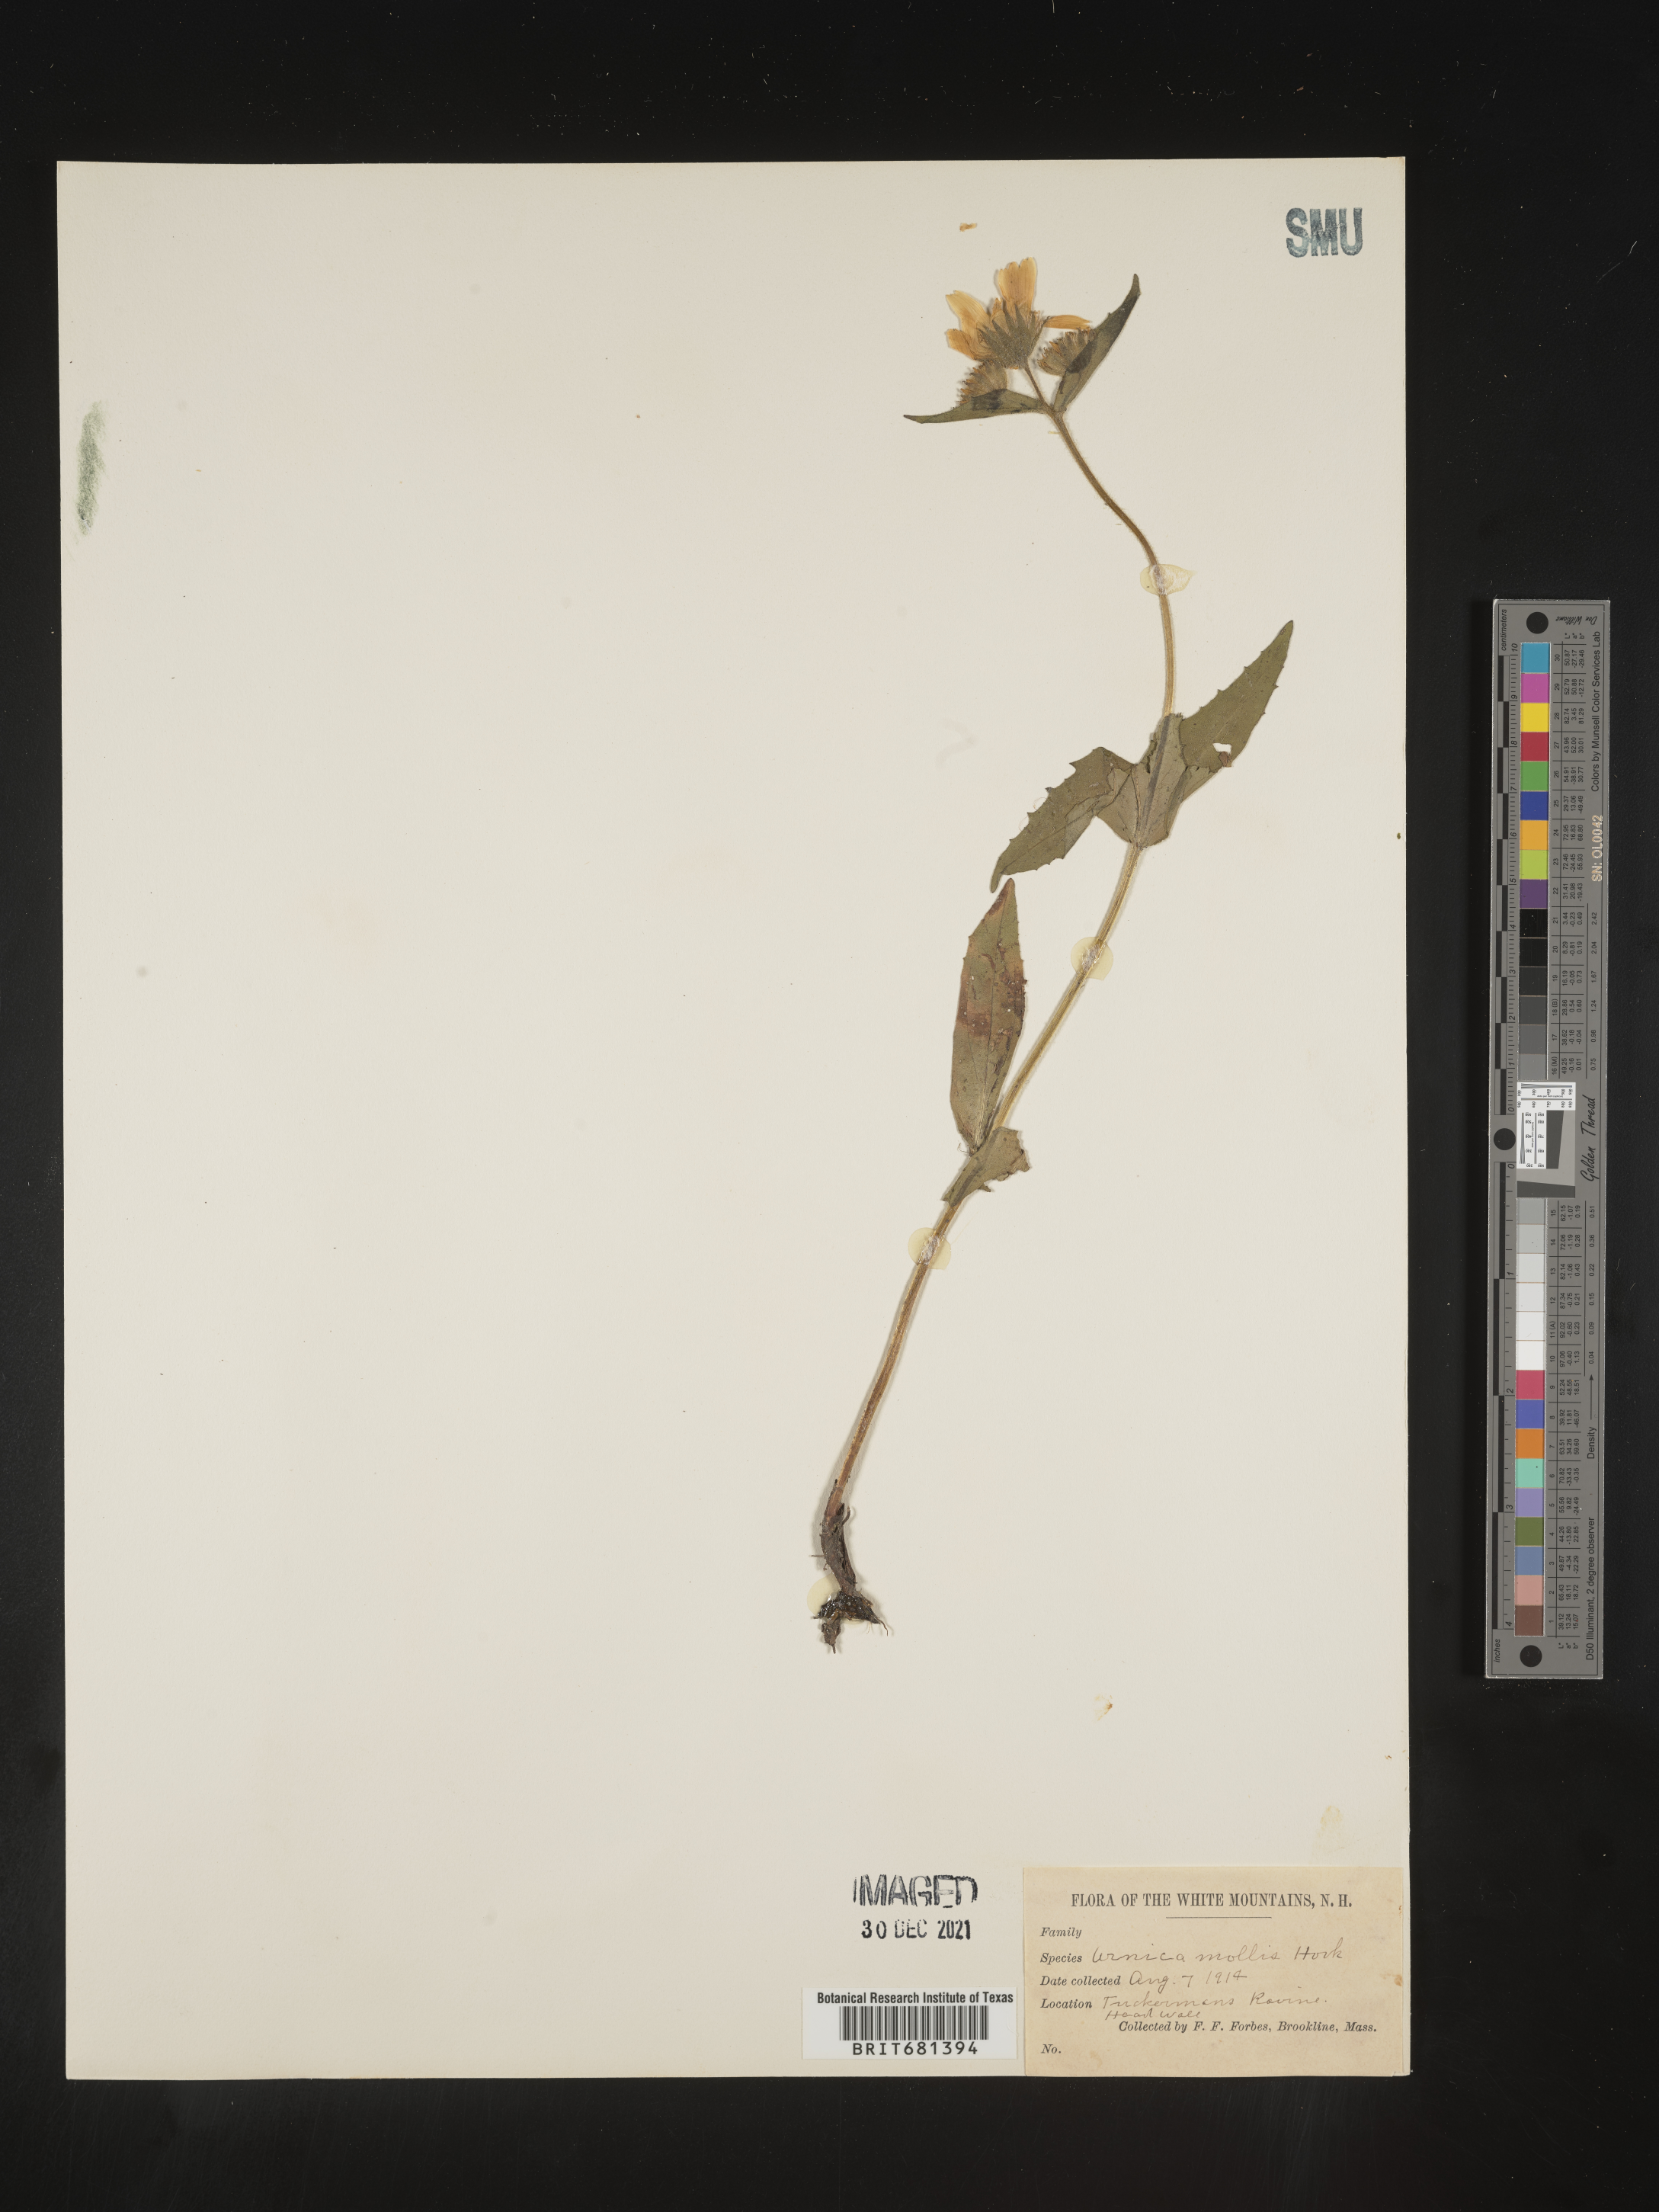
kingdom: Plantae
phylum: Tracheophyta
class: Magnoliopsida
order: Asterales
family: Asteraceae
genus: Arnica
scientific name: Arnica mollis
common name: Hairy arnica
